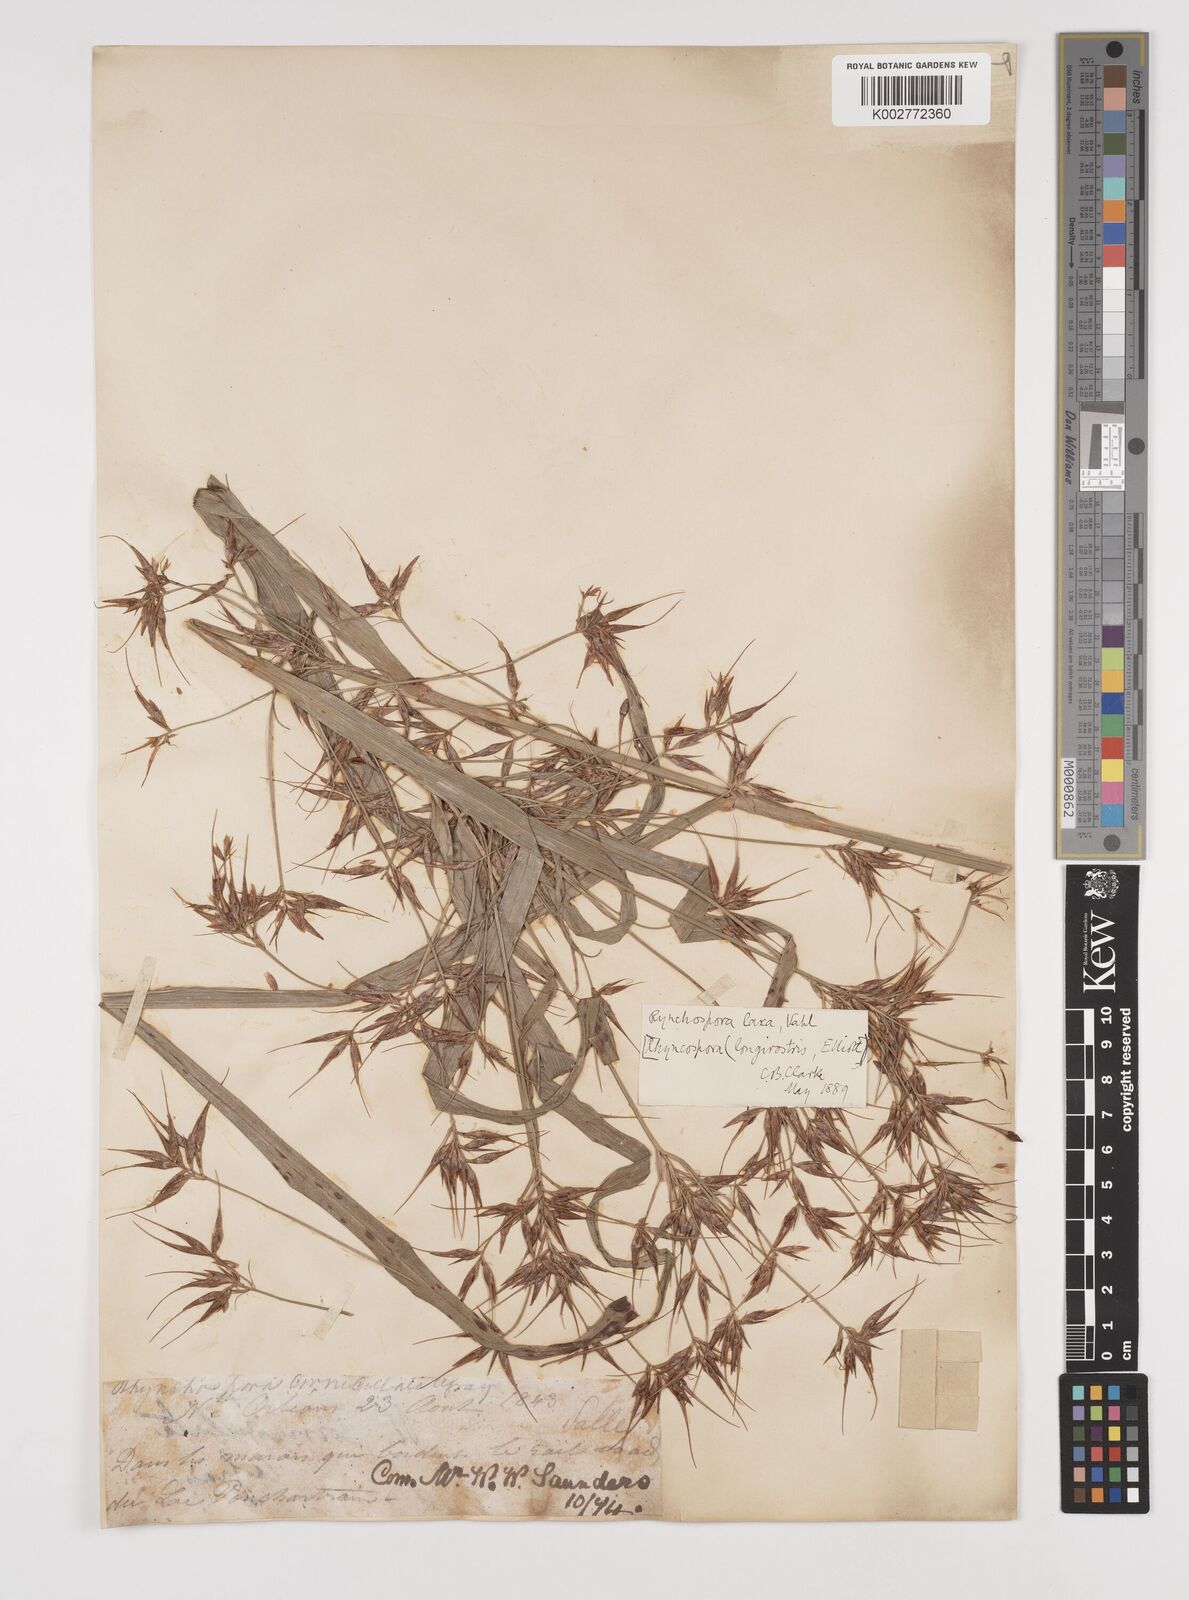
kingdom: Plantae
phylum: Tracheophyta
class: Liliopsida
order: Poales
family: Cyperaceae
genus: Rhynchospora
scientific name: Rhynchospora corniculata
